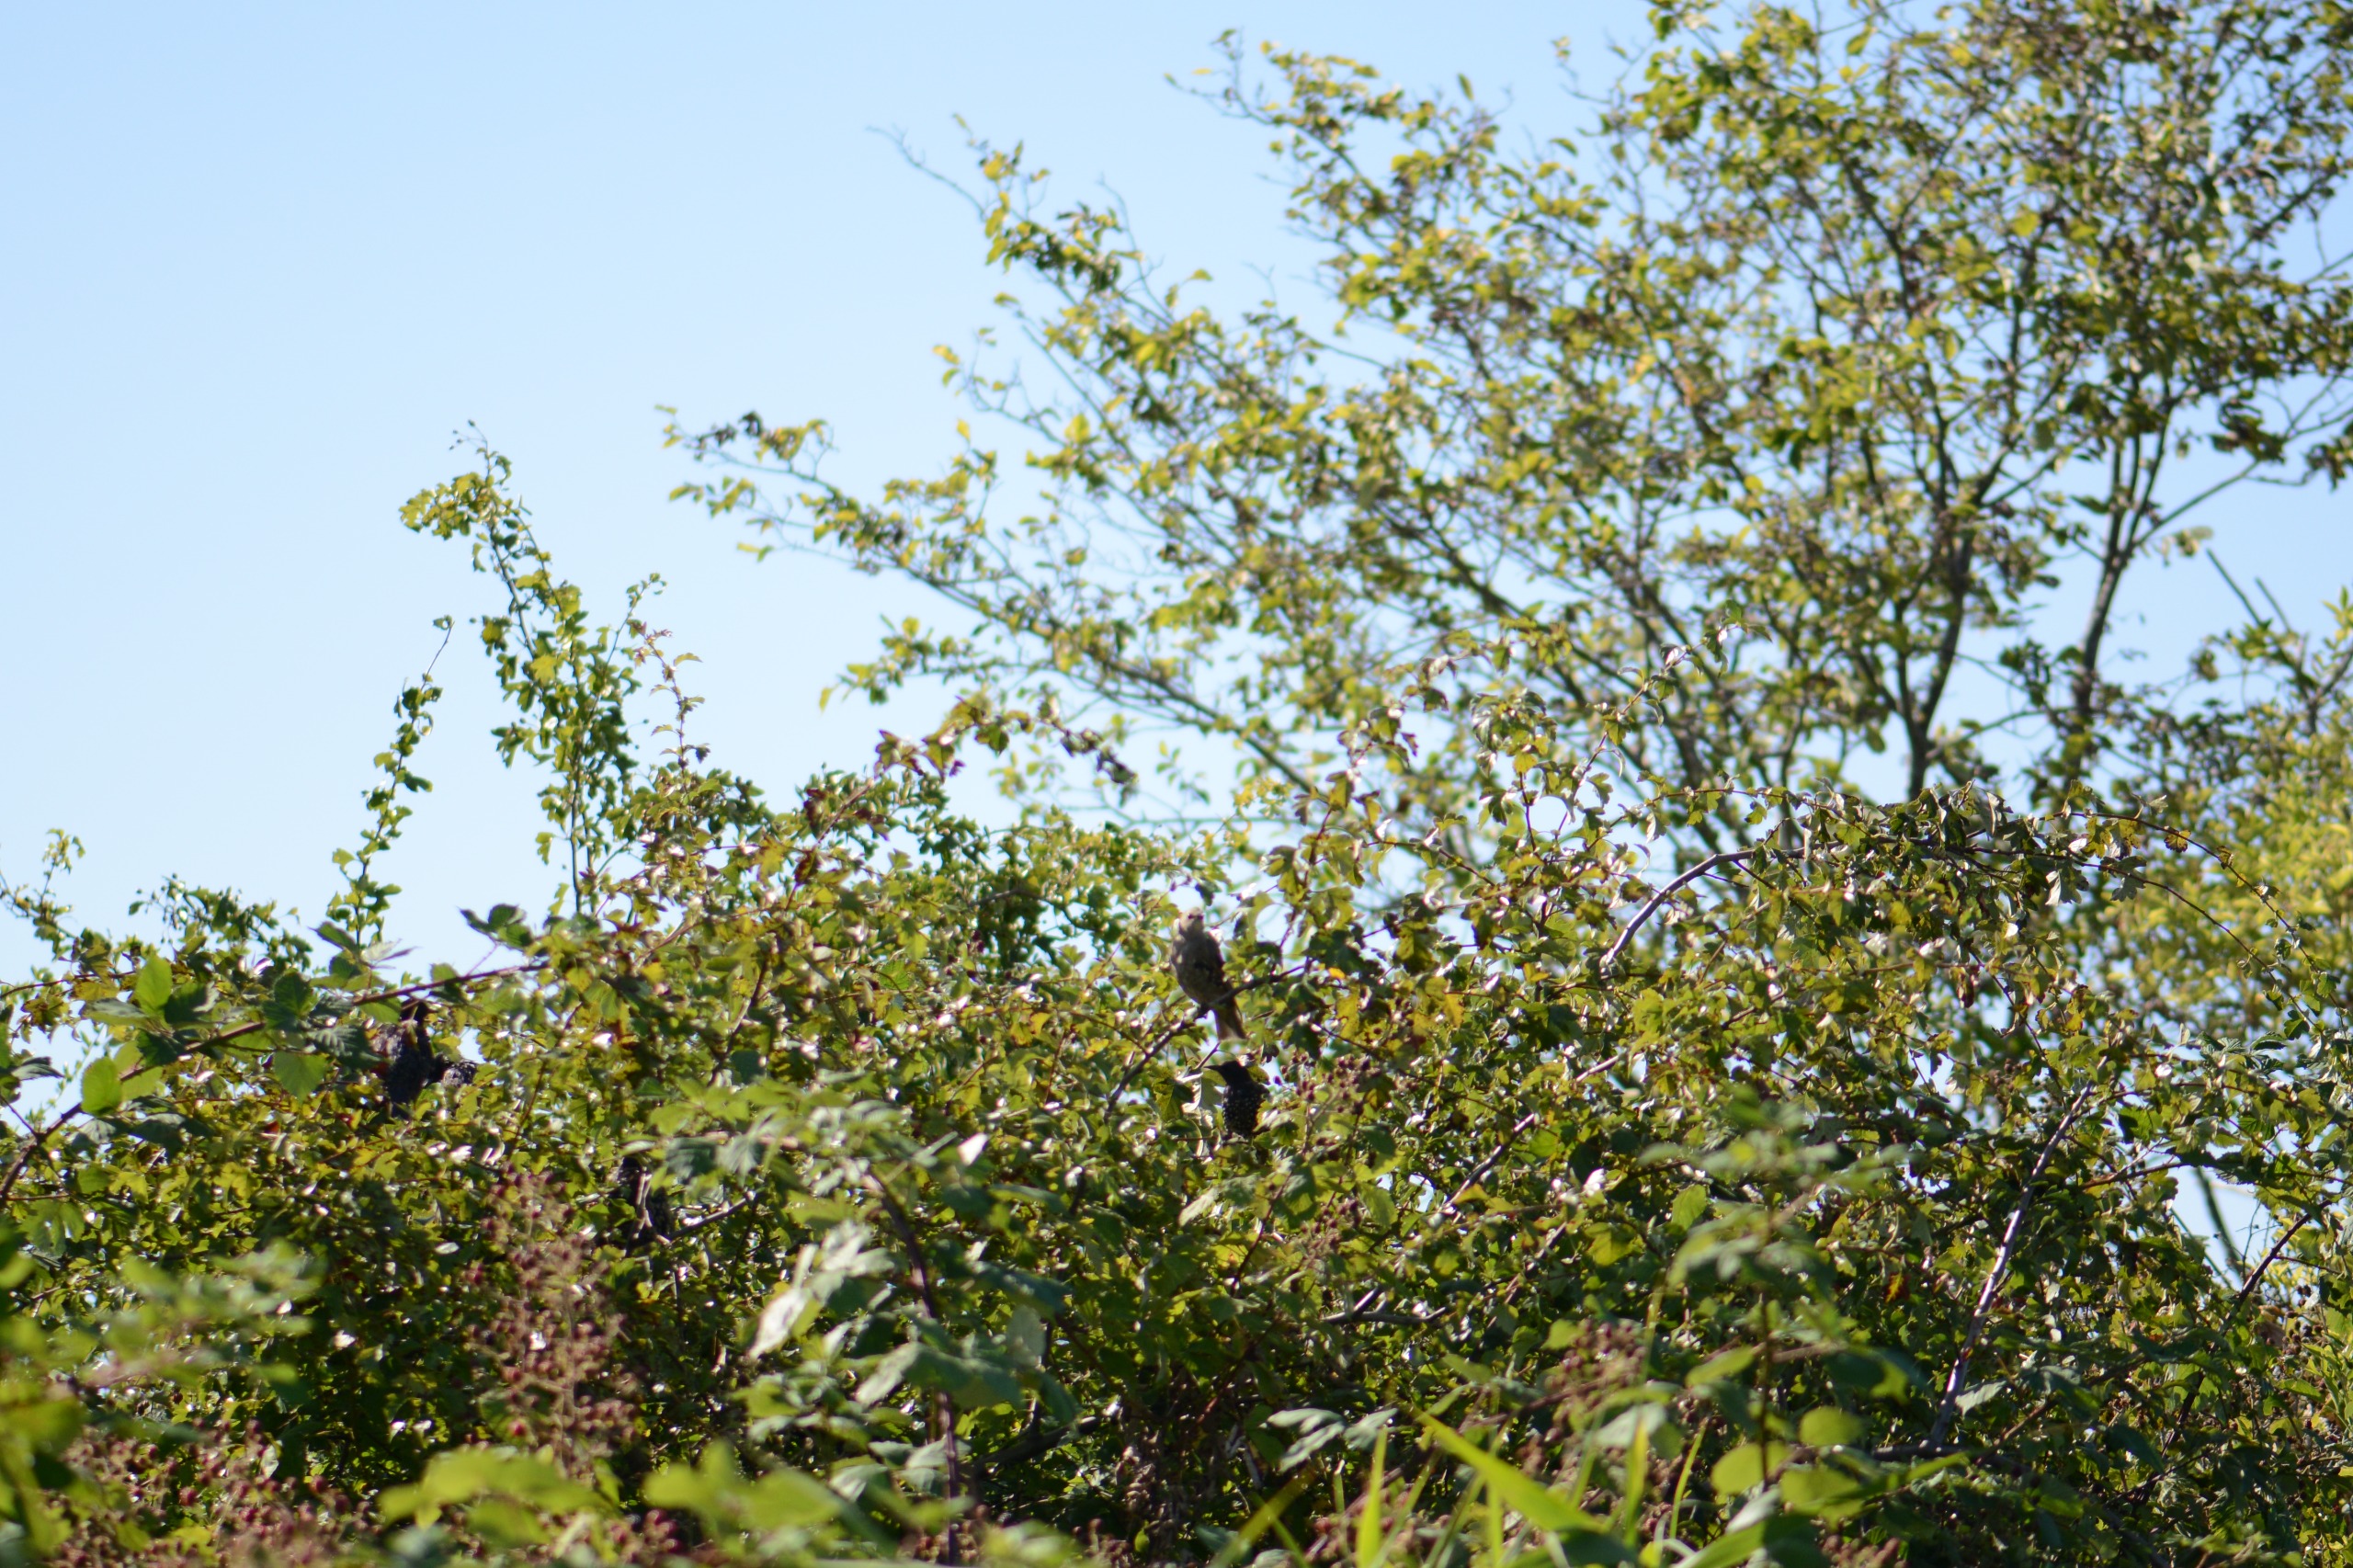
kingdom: Animalia
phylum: Chordata
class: Aves
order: Passeriformes
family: Sturnidae
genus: Sturnus
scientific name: Sturnus vulgaris
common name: Stær
